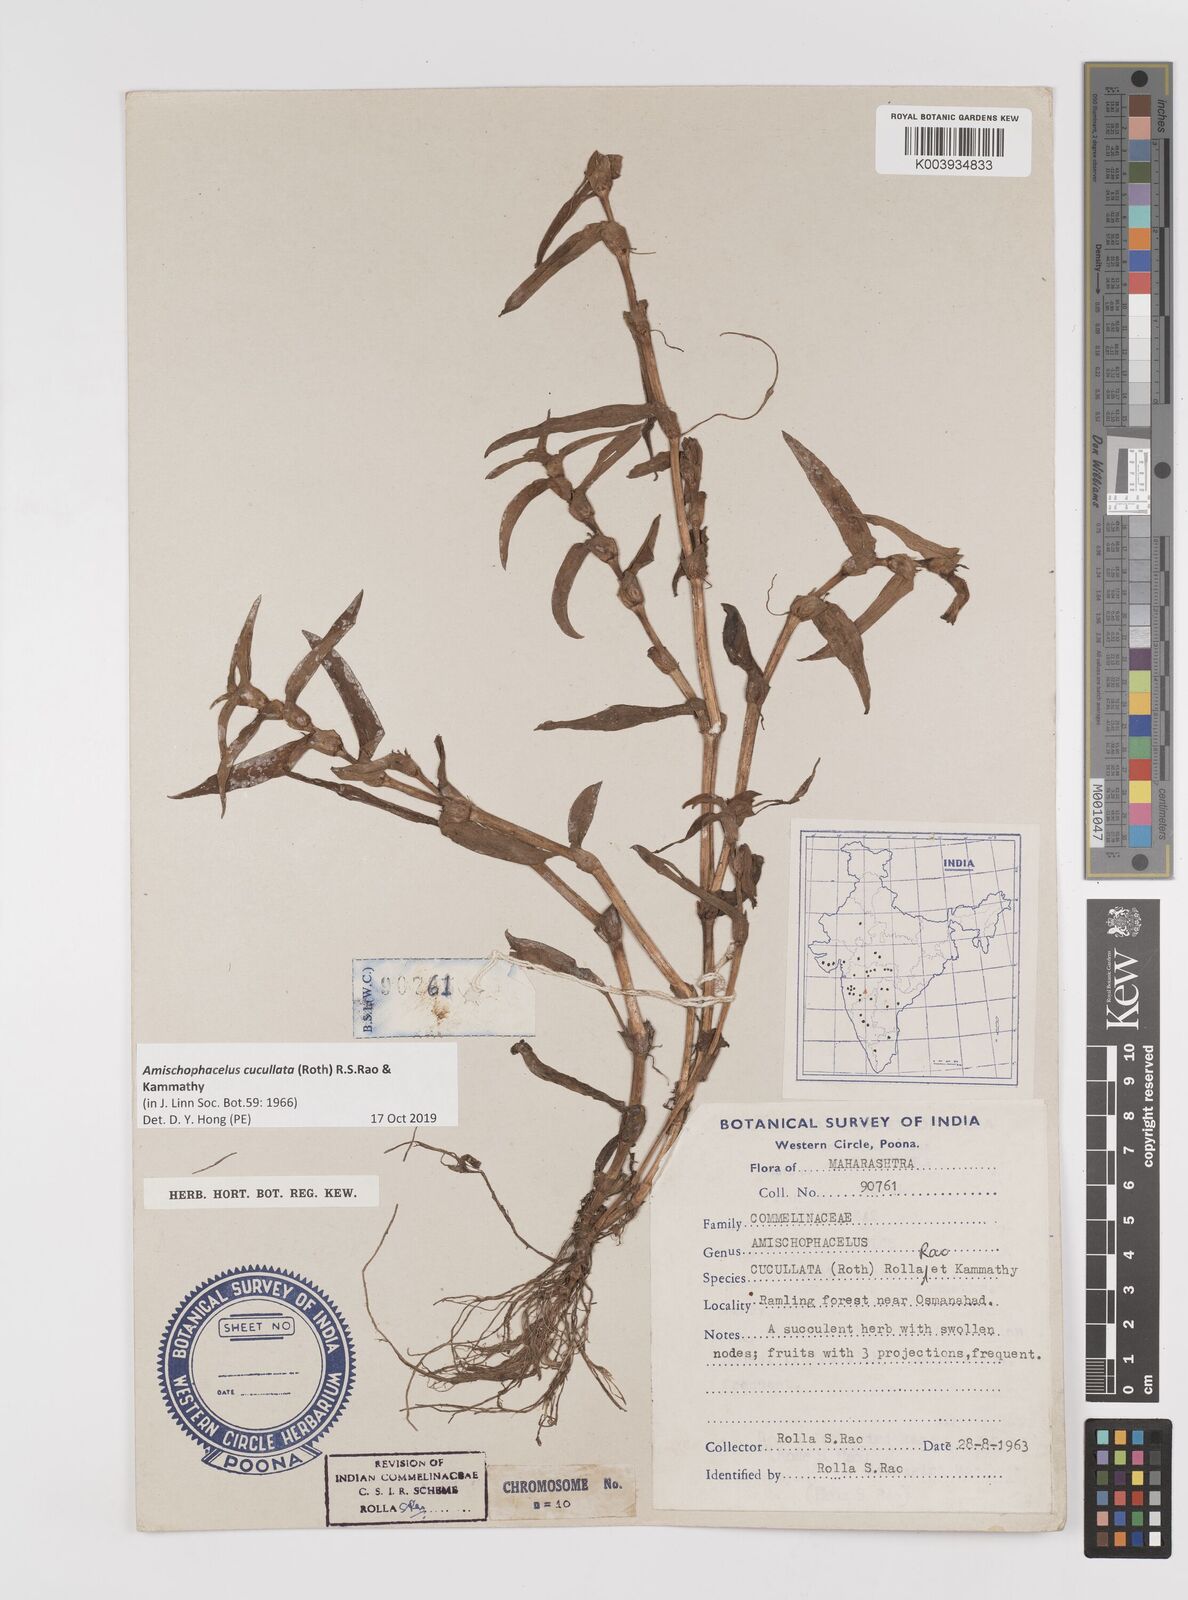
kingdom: Plantae
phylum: Tracheophyta
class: Liliopsida
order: Commelinales
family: Commelinaceae
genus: Cyanotis
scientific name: Cyanotis cucullata
